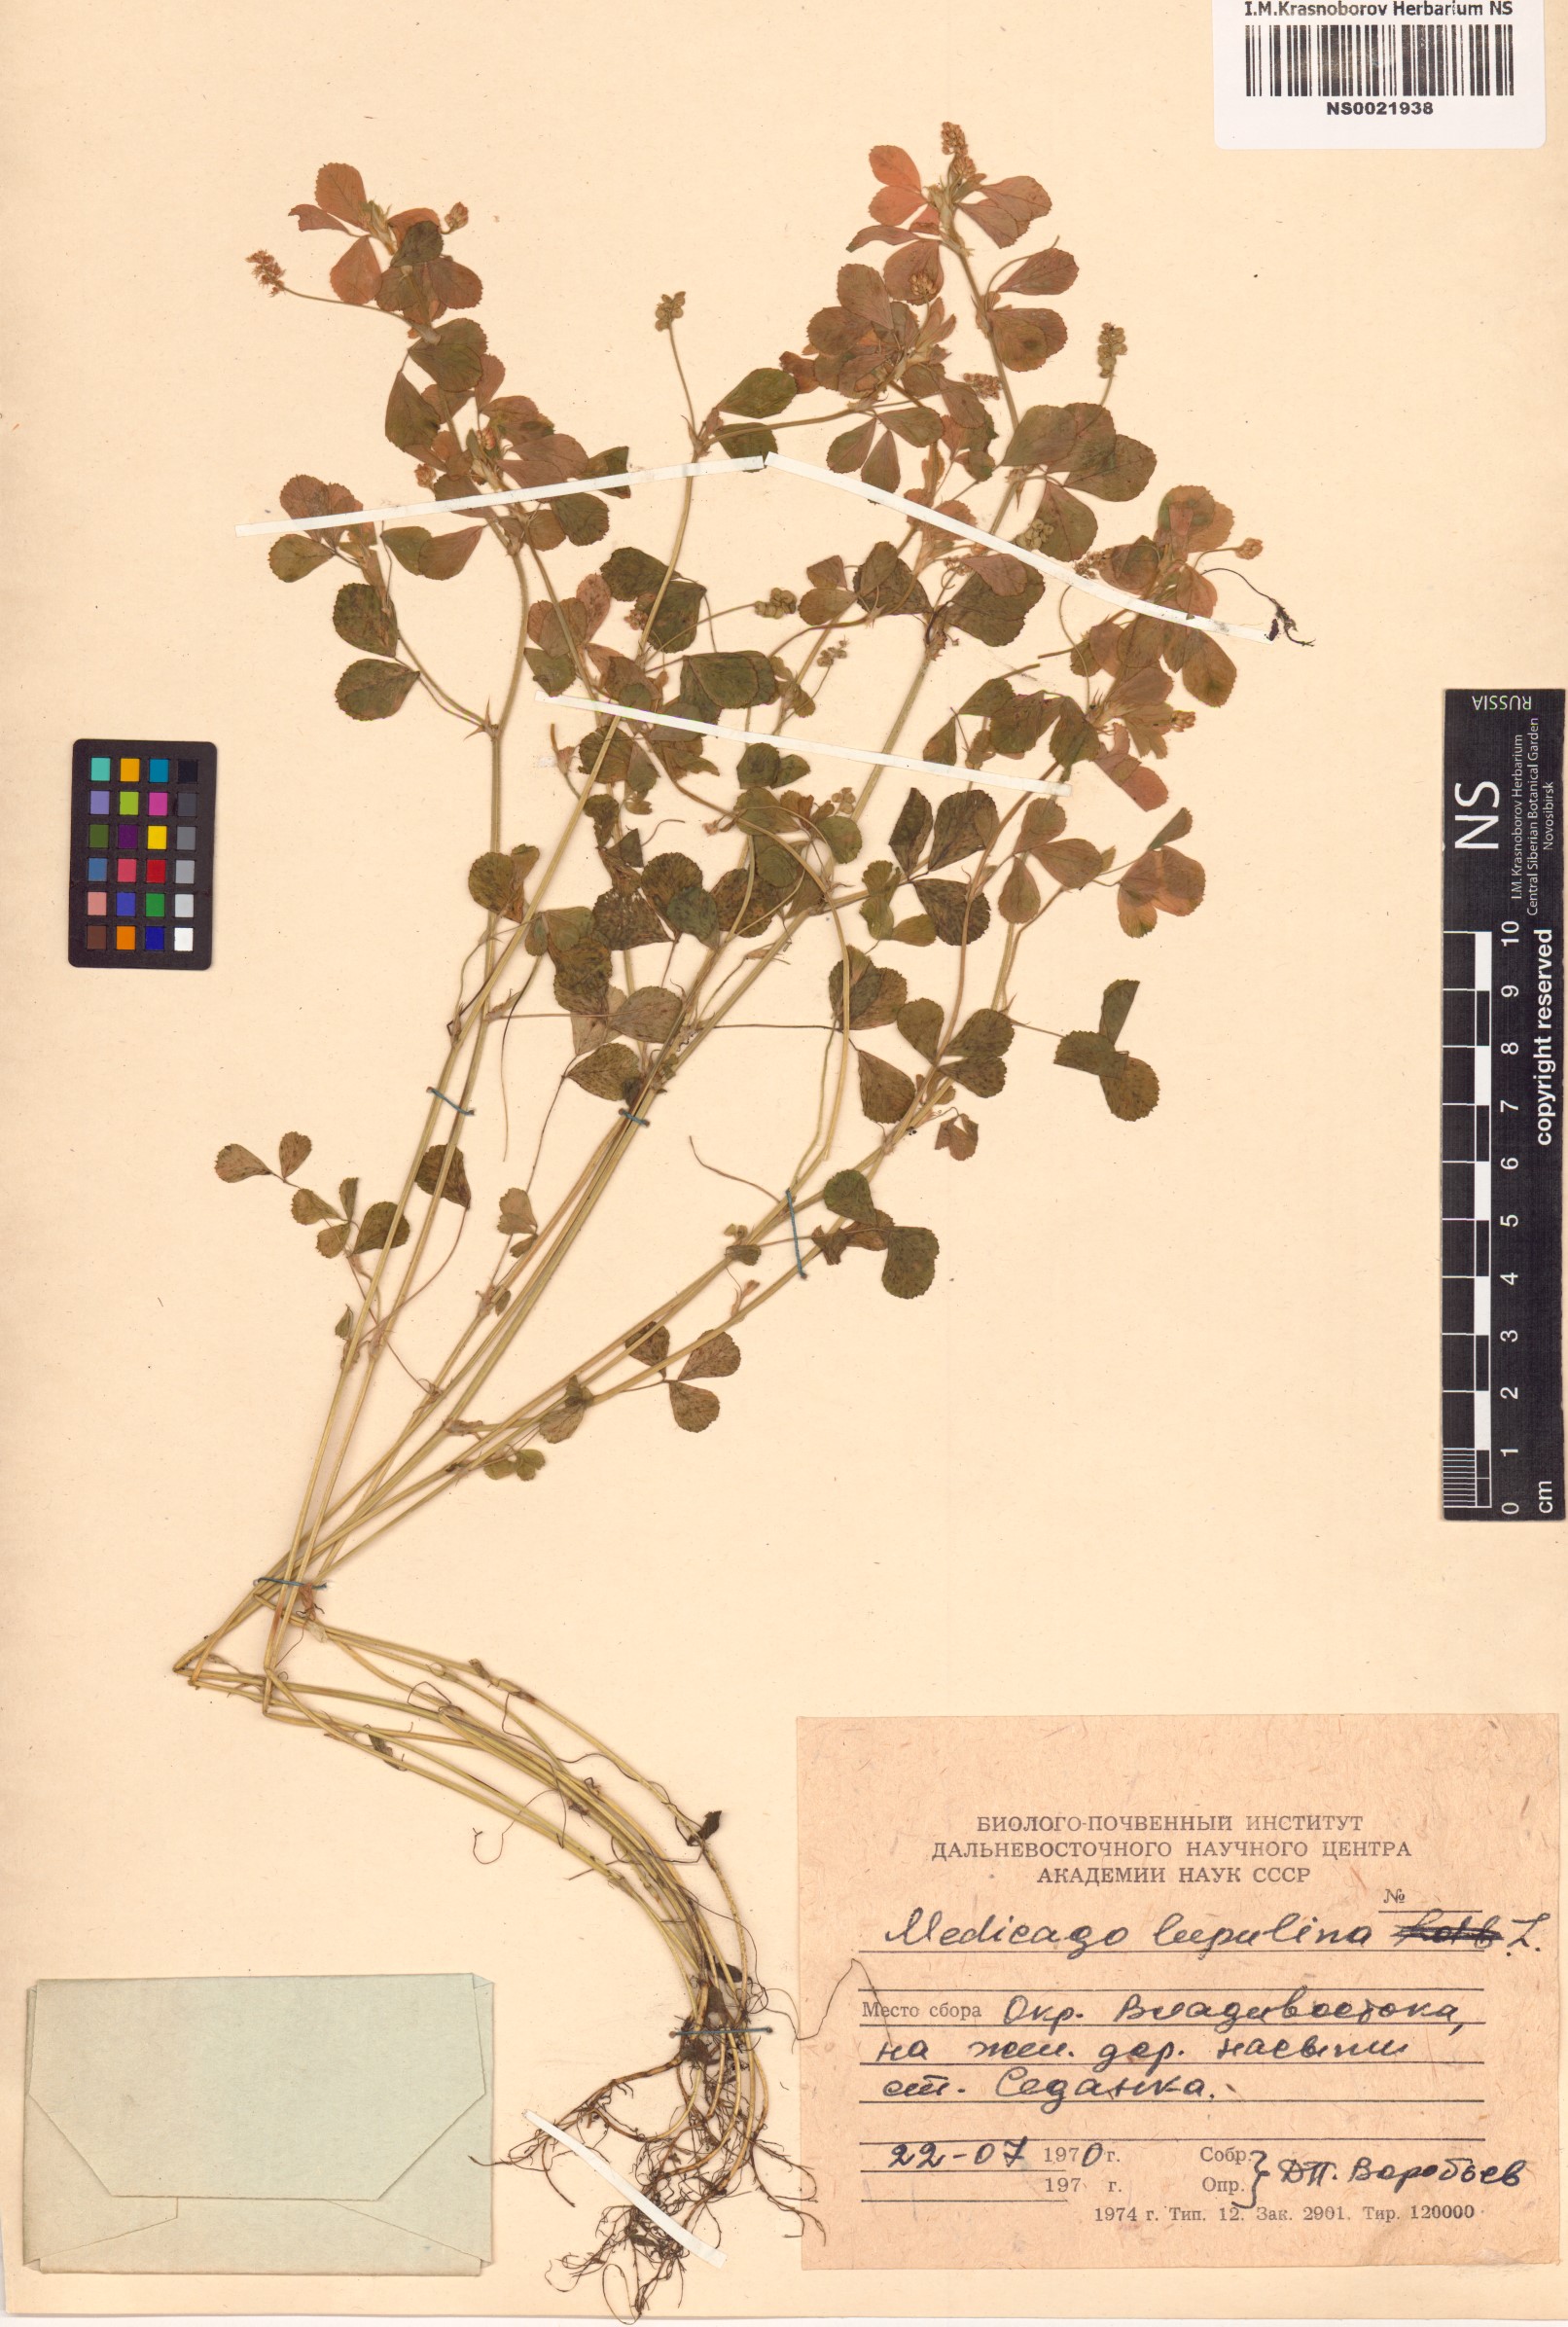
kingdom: Plantae
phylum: Tracheophyta
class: Magnoliopsida
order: Fabales
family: Fabaceae
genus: Medicago
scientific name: Medicago lupulina
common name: Black medick
